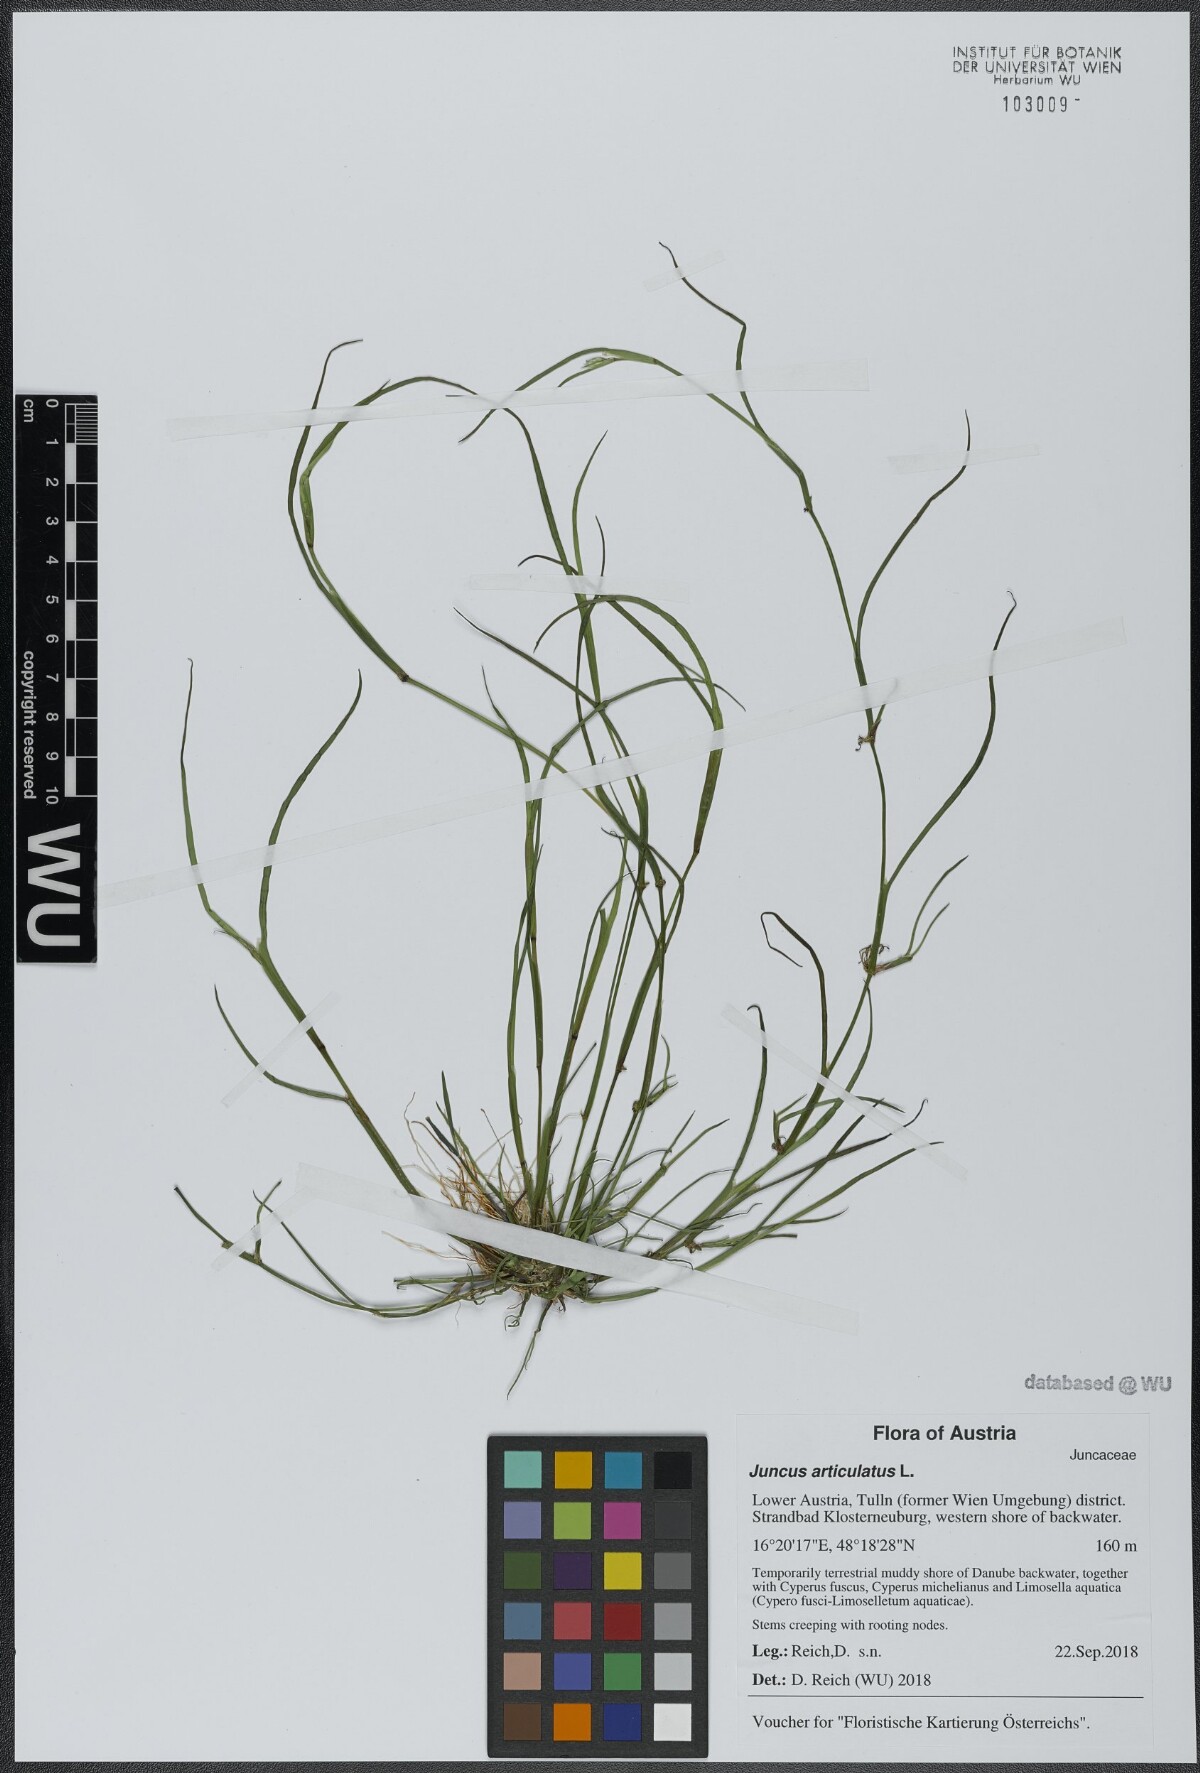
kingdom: Plantae
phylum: Tracheophyta
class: Liliopsida
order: Poales
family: Juncaceae
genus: Juncus
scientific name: Juncus articulatus
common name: Jointed rush
